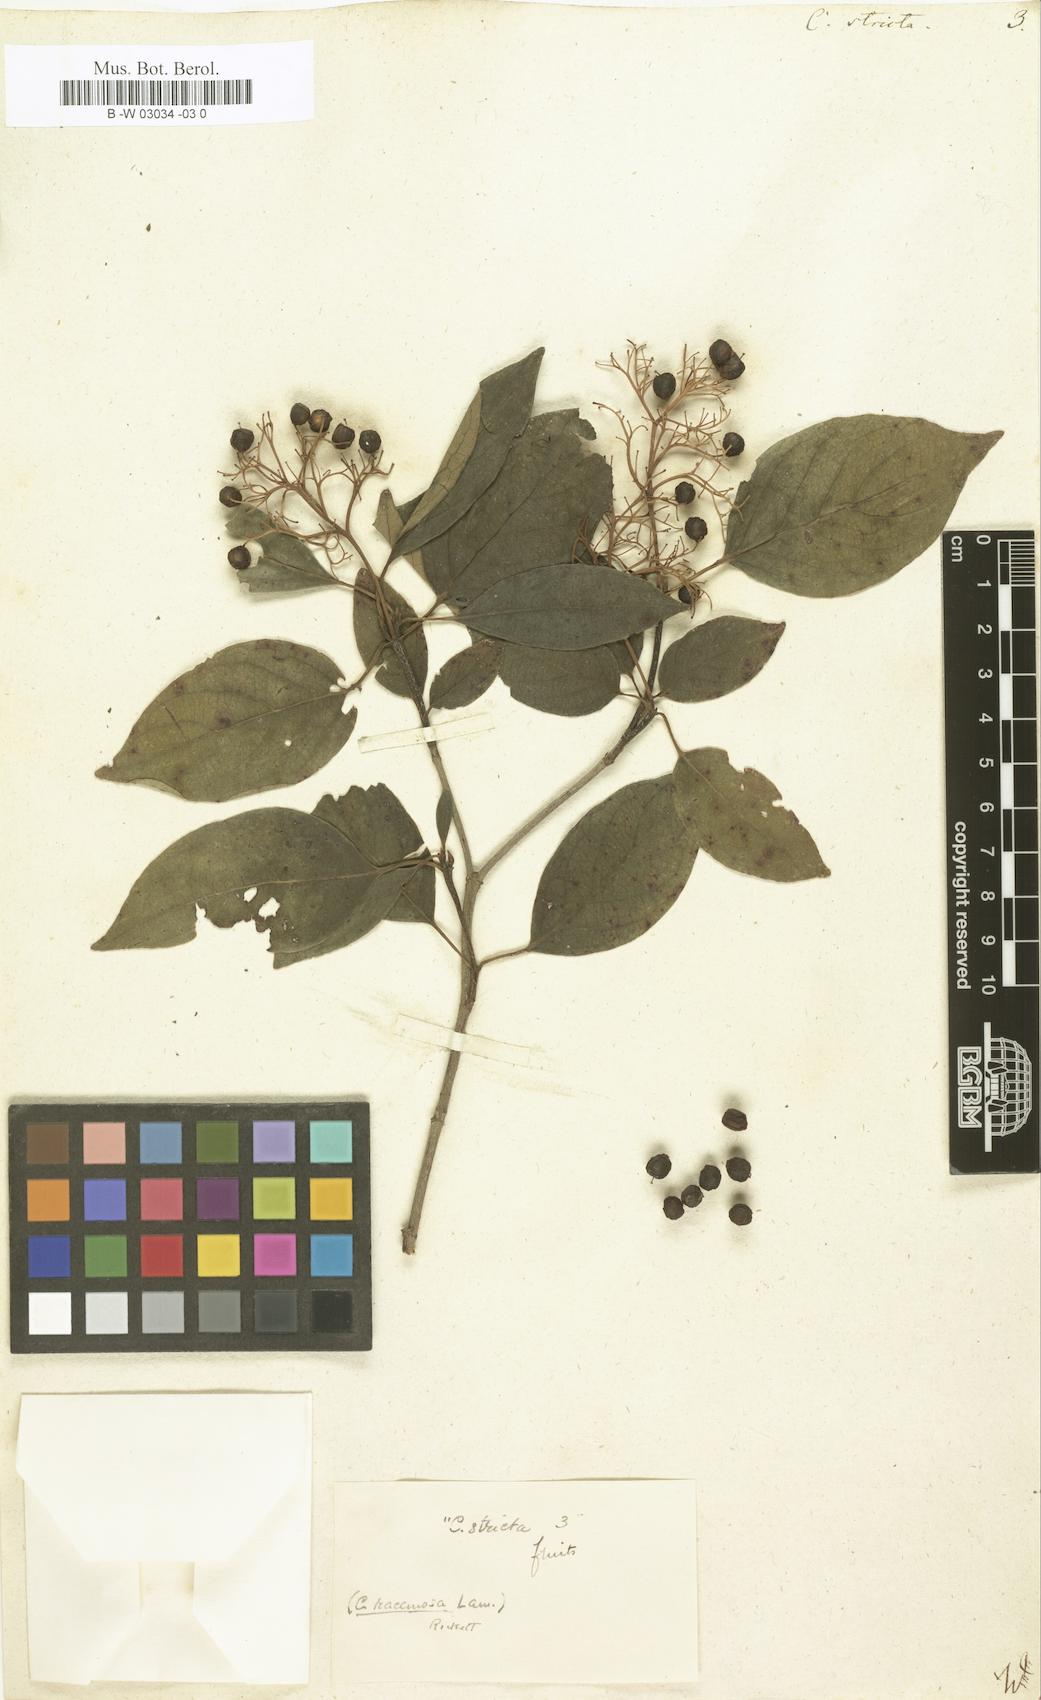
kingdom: Plantae
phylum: Tracheophyta
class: Magnoliopsida
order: Cornales
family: Cornaceae
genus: Cornus
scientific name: Cornus foemina
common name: Swamp dogwood
